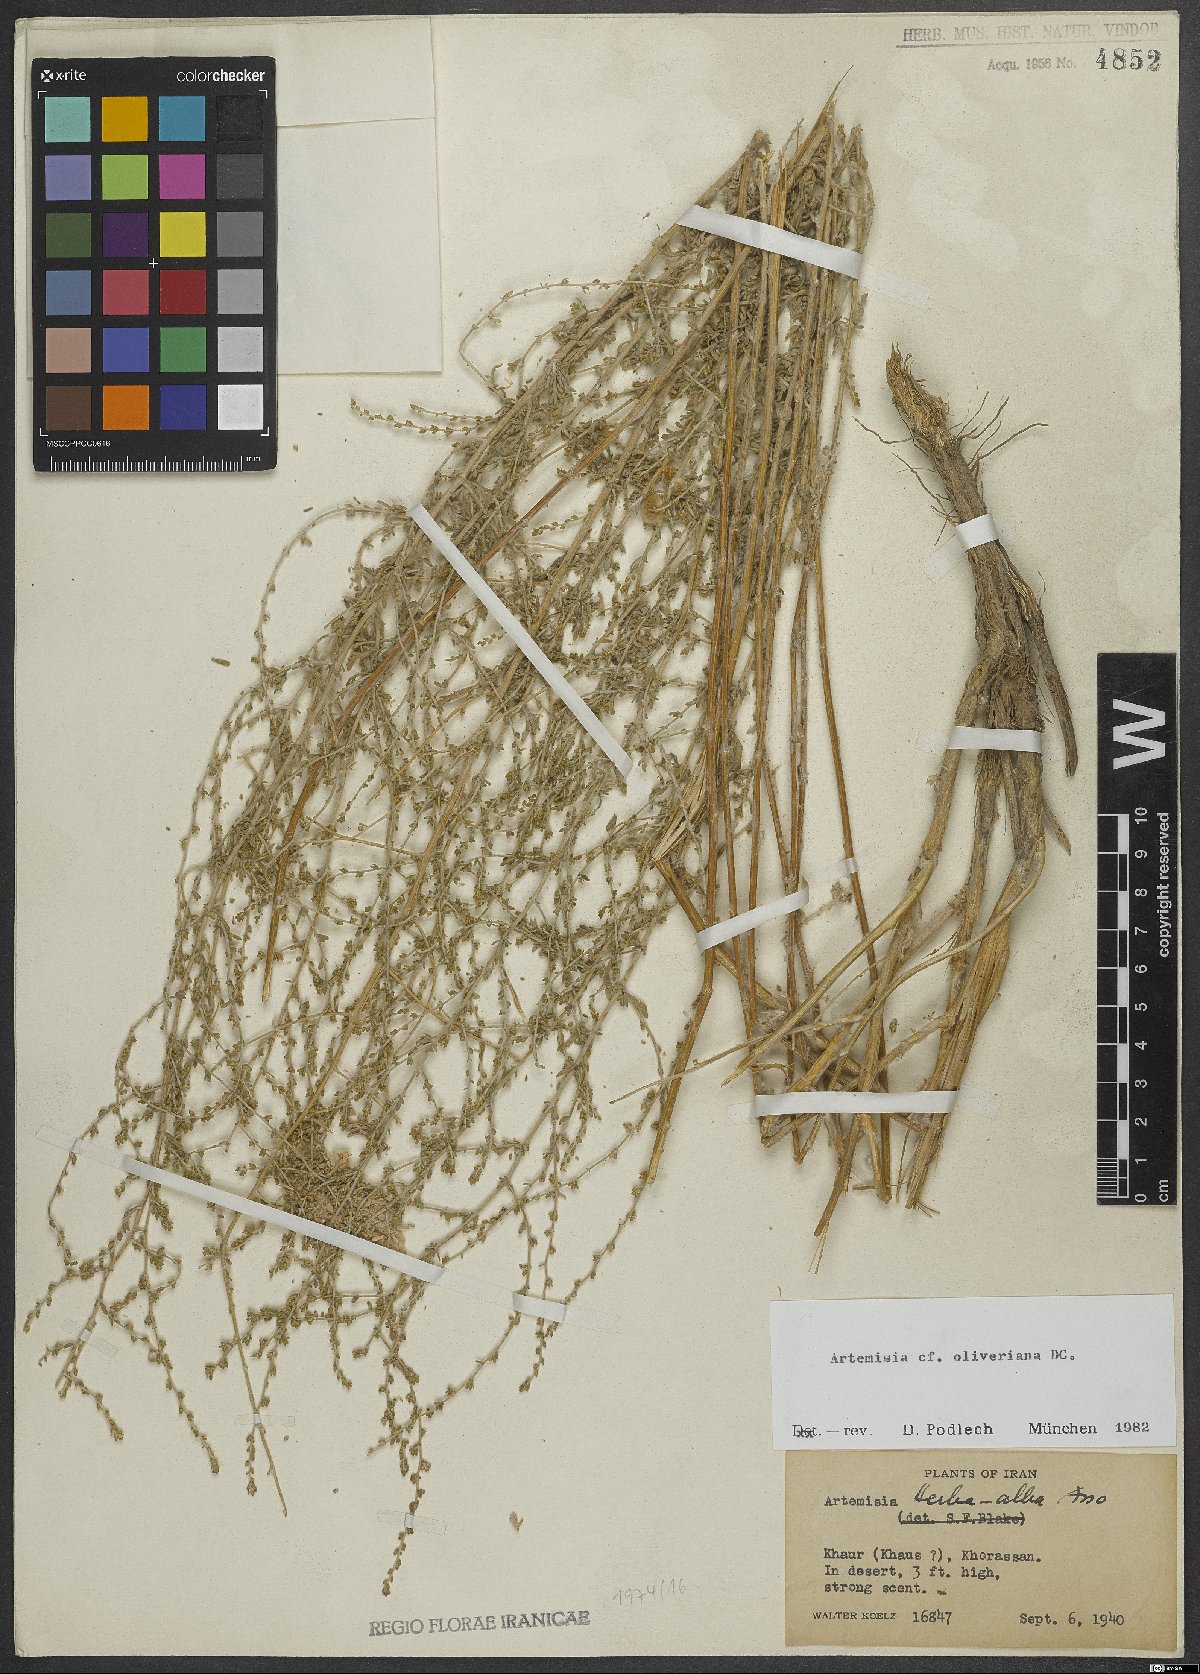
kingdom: Plantae
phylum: Tracheophyta
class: Magnoliopsida
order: Asterales
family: Asteraceae
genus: Artemisia
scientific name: Artemisia oliveriana
